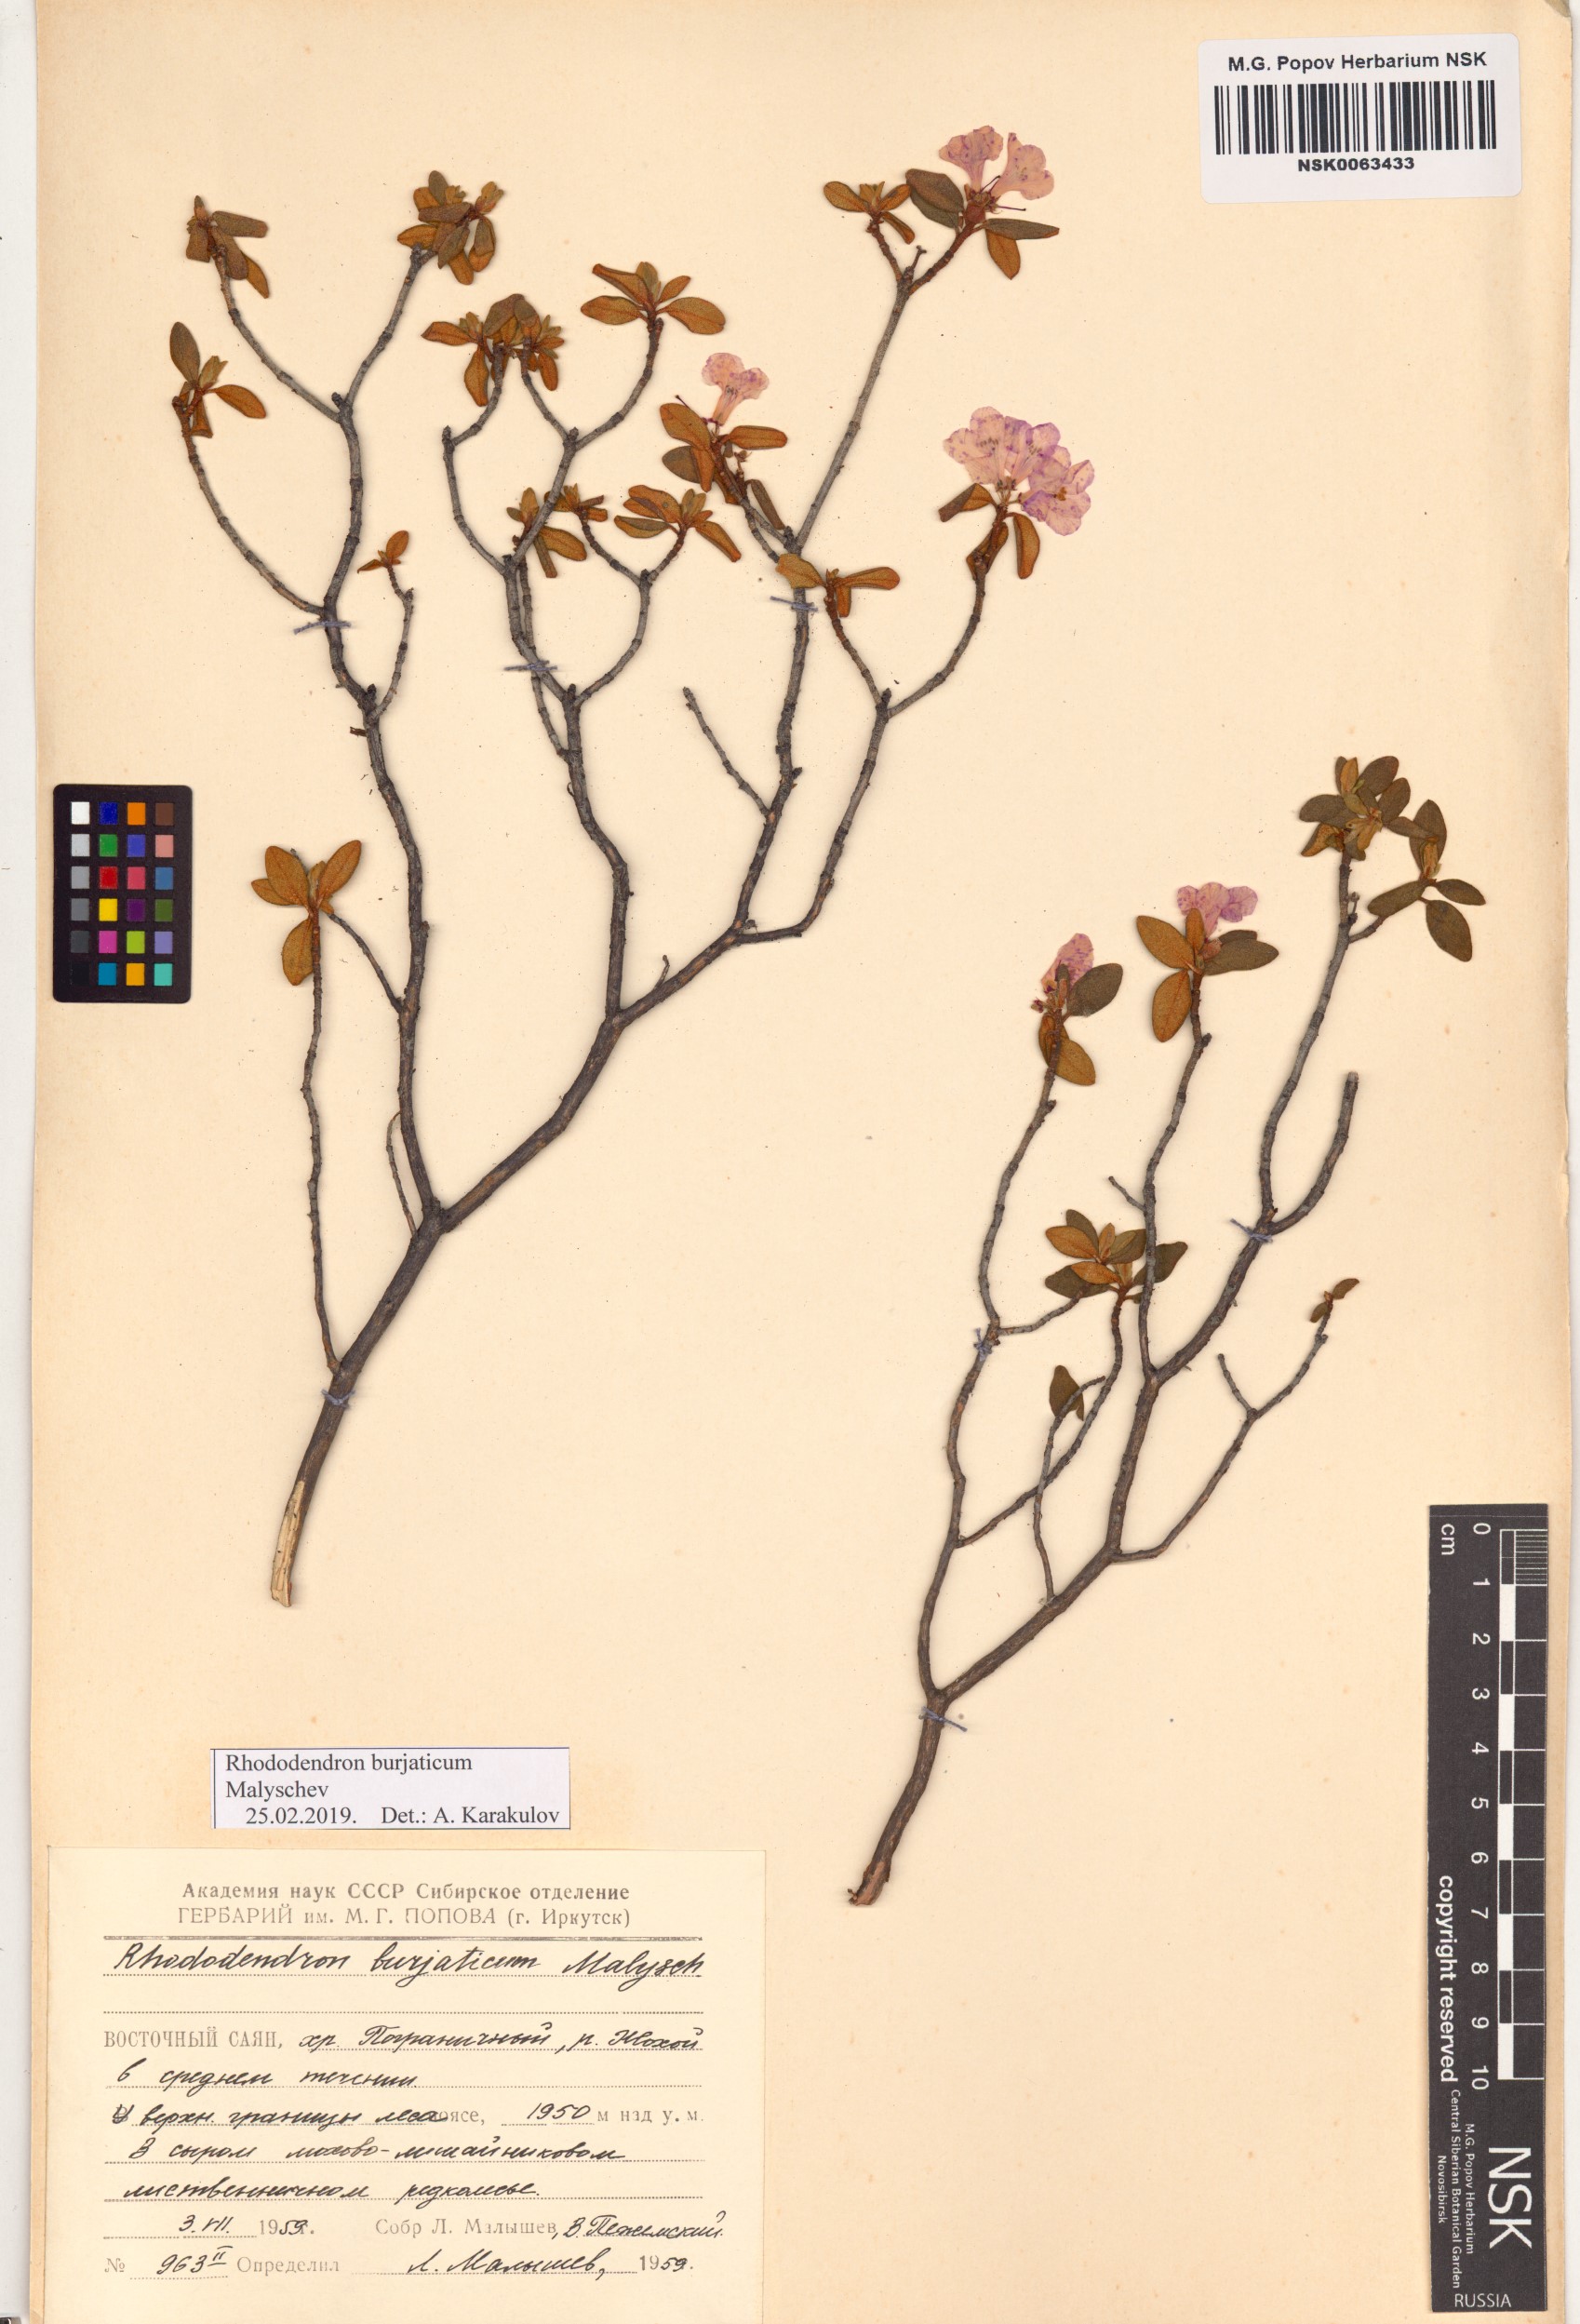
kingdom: Plantae
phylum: Tracheophyta
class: Magnoliopsida
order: Ericales
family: Ericaceae
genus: Rhododendron
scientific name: Rhododendron burjaticum
